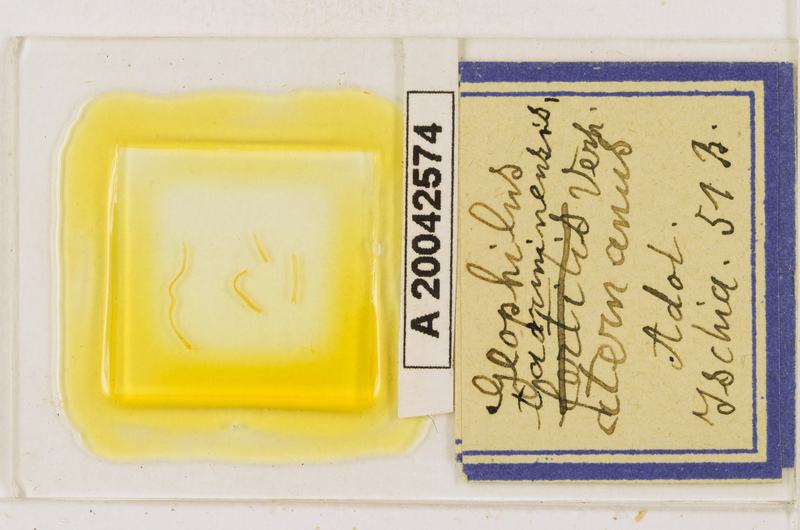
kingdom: Animalia
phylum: Arthropoda
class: Chilopoda
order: Geophilomorpha
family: Geophilidae
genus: Geophilus
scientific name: Geophilus osquidatum
